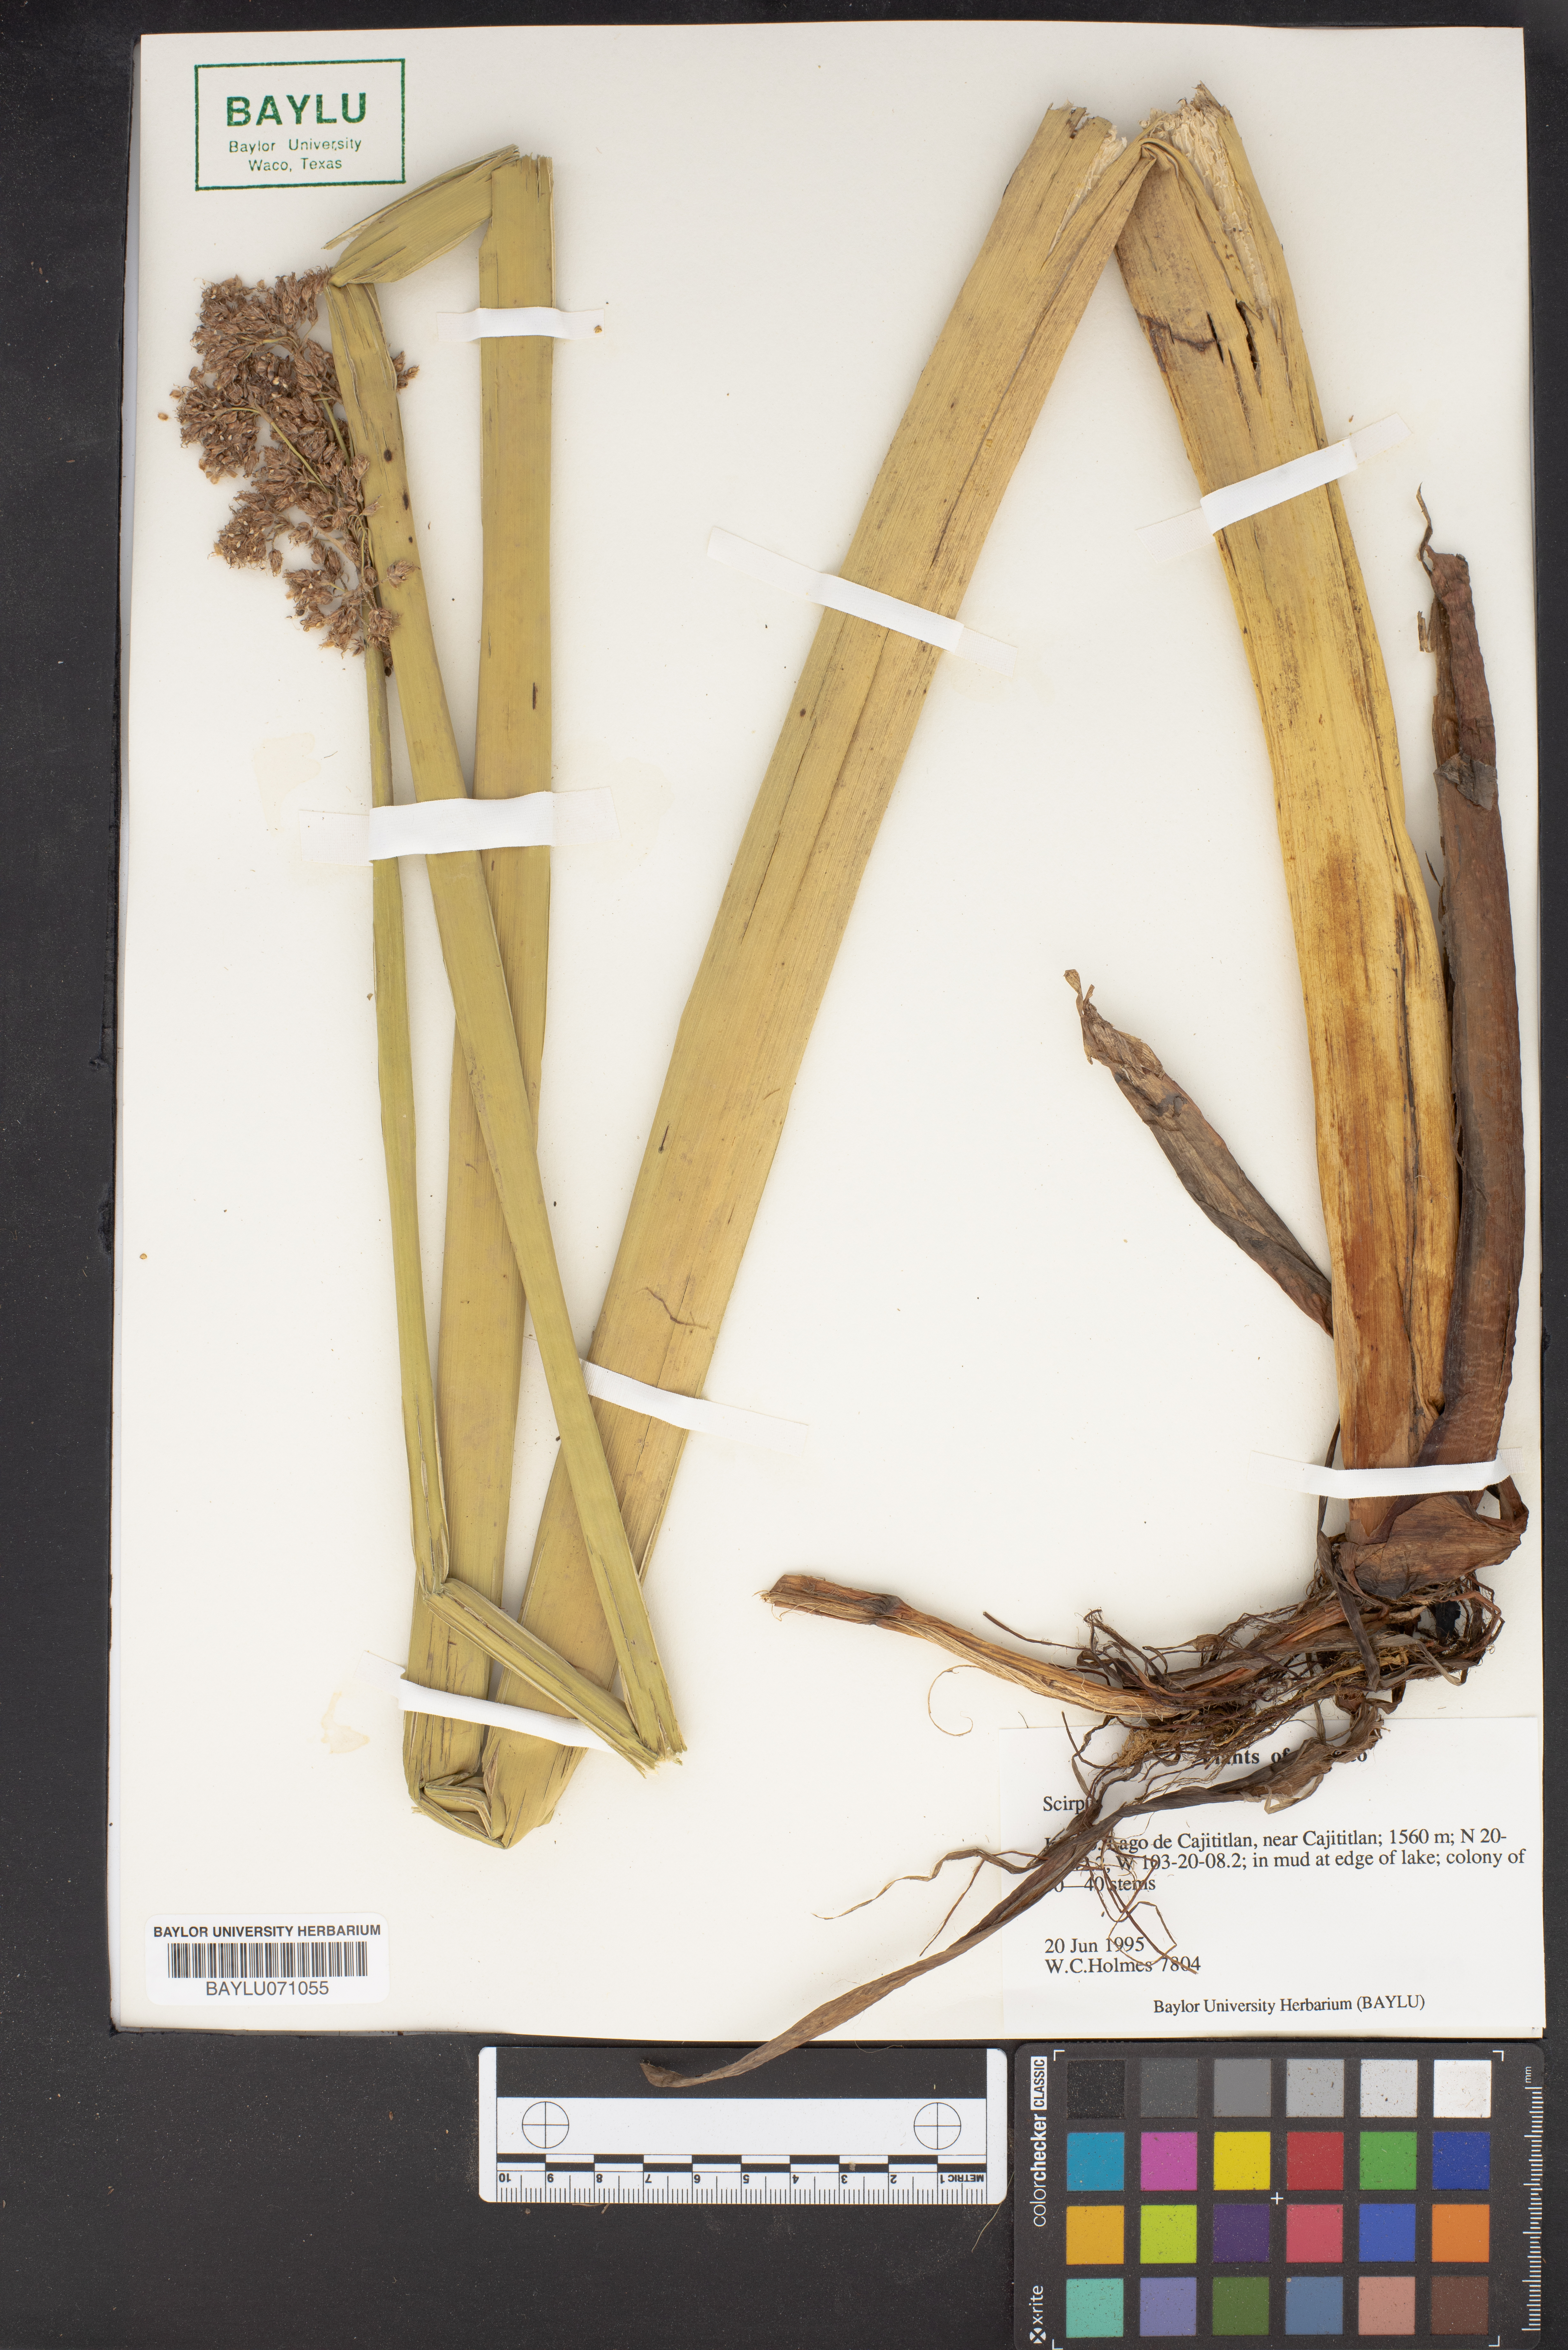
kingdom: Plantae
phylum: Tracheophyta
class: Liliopsida
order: Poales
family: Cyperaceae
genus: Scirpus
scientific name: Scirpus
